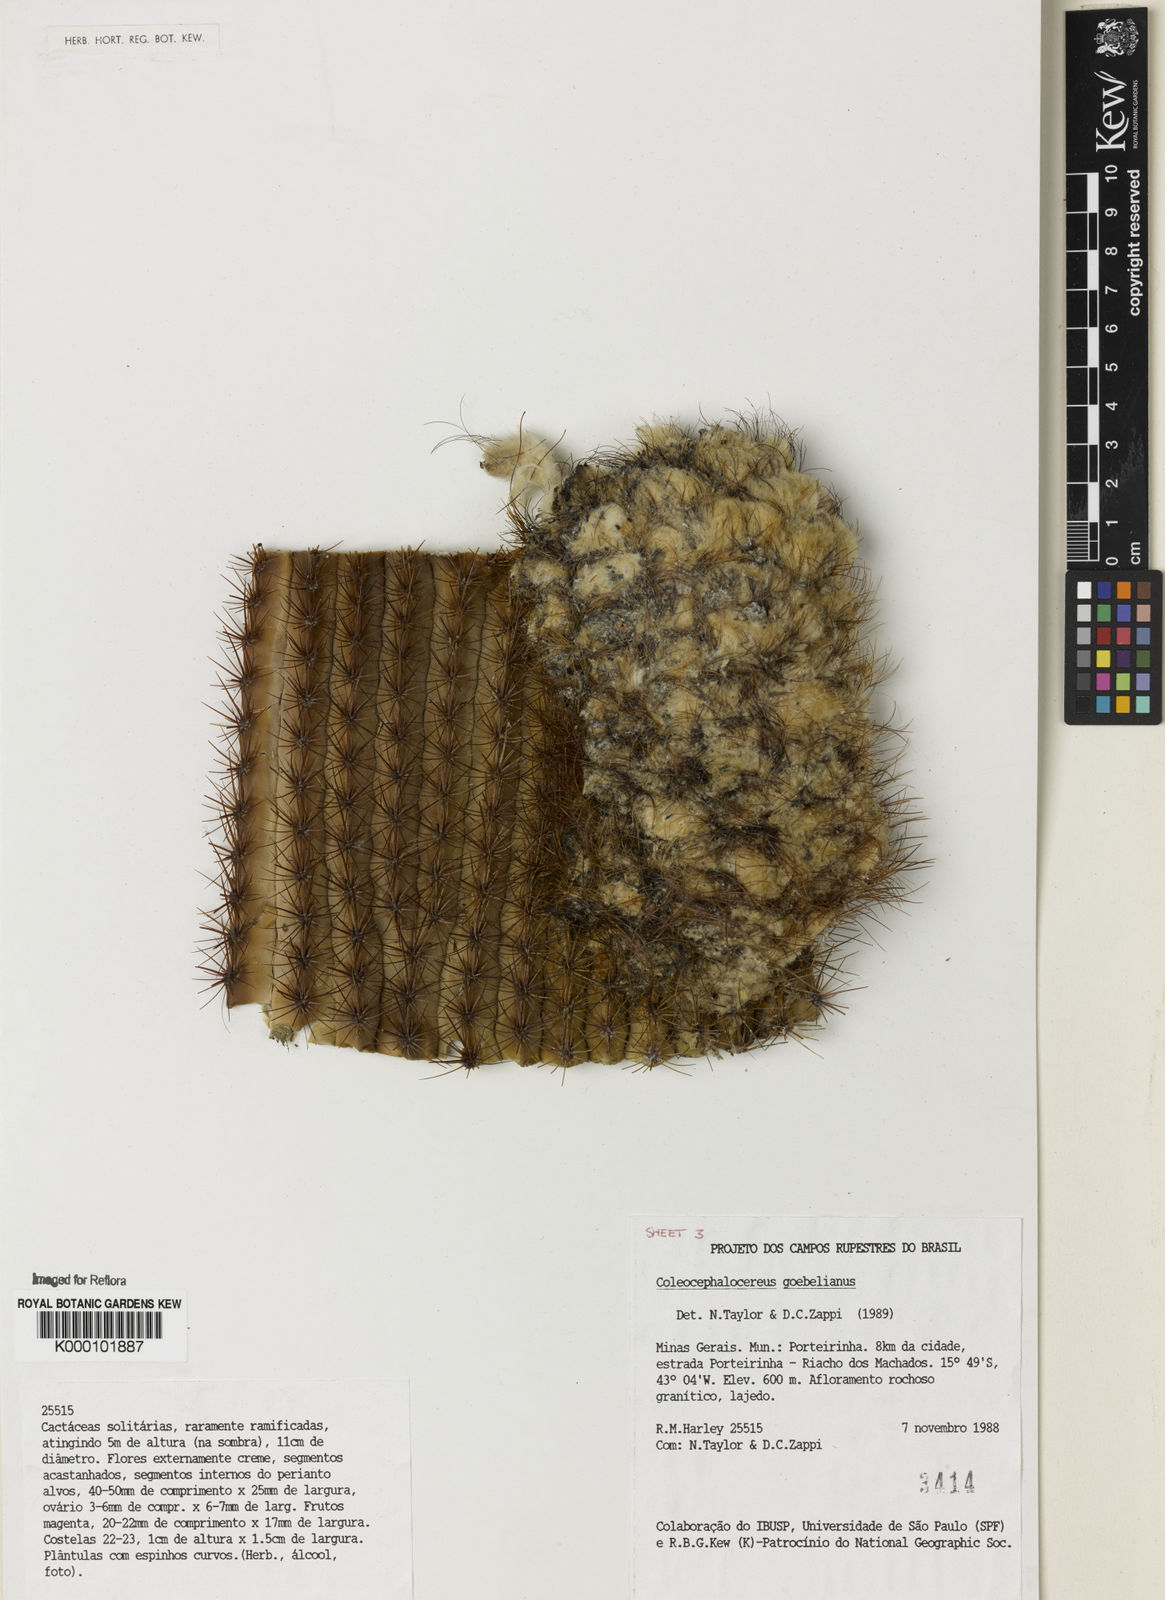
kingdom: Plantae
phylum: Tracheophyta
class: Magnoliopsida
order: Caryophyllales
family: Cactaceae
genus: Coleocephalocereus
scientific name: Coleocephalocereus goebelianus
